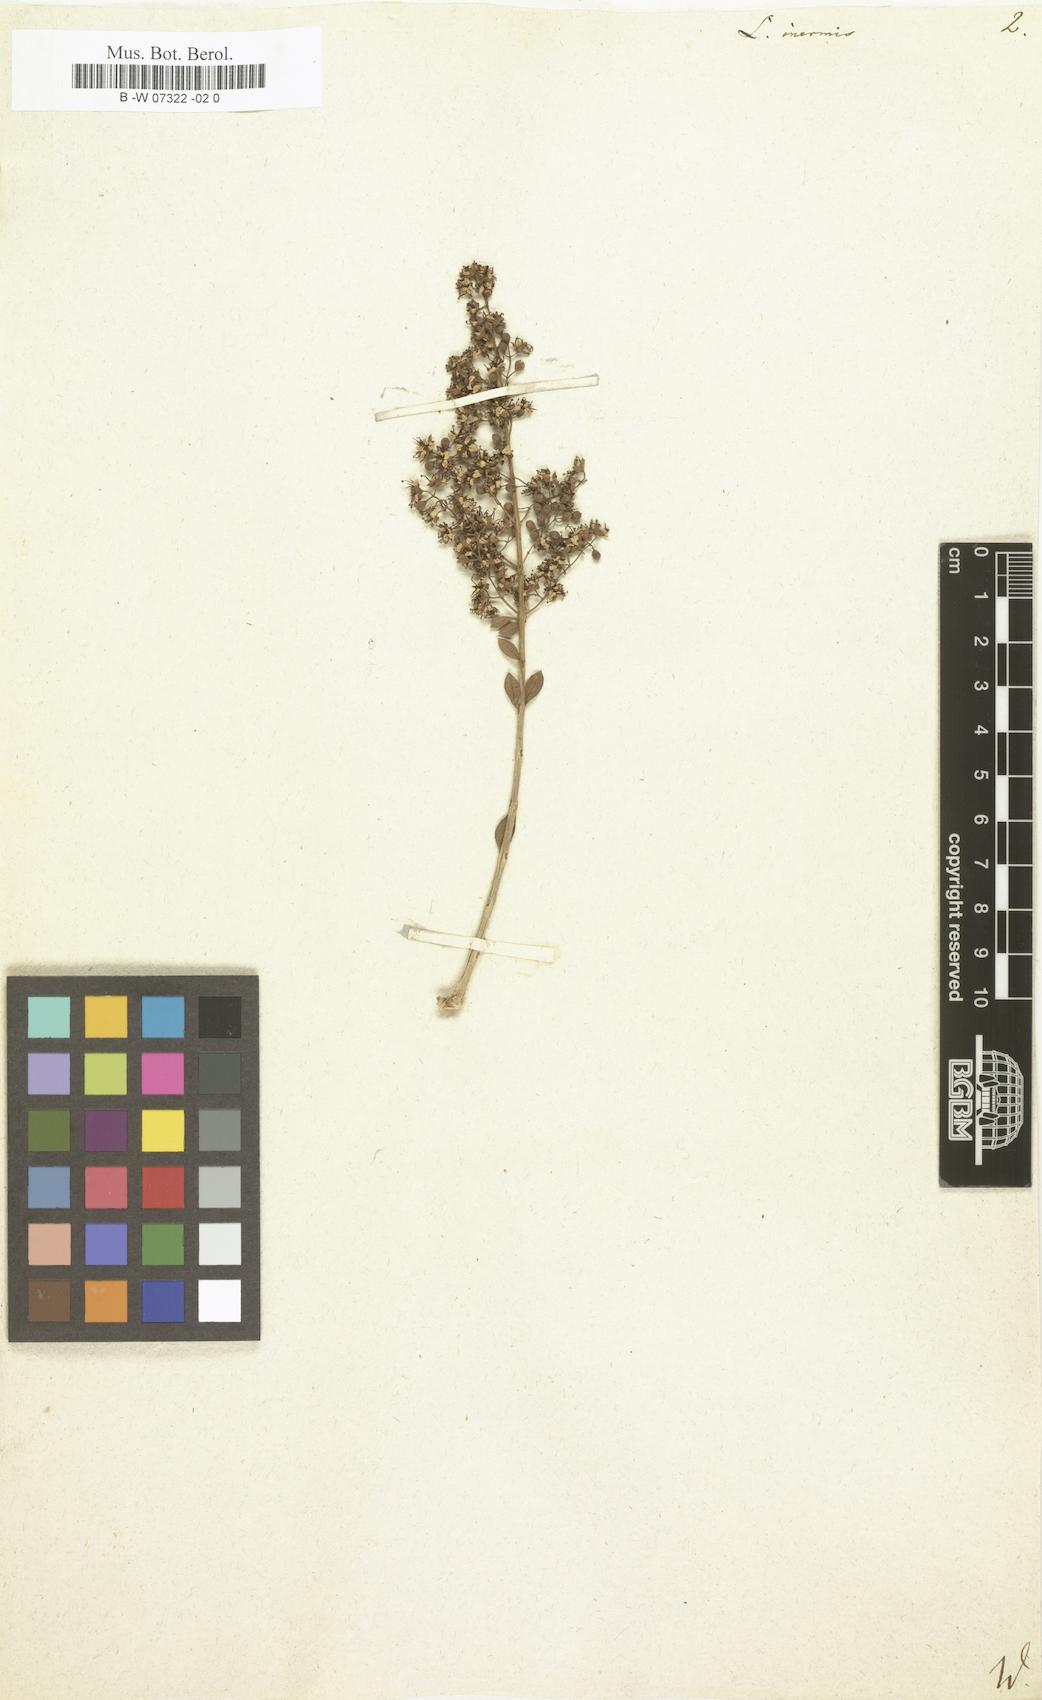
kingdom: Plantae
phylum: Tracheophyta
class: Magnoliopsida
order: Myrtales
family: Lythraceae
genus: Lawsonia
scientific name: Lawsonia inermis
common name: Henna
